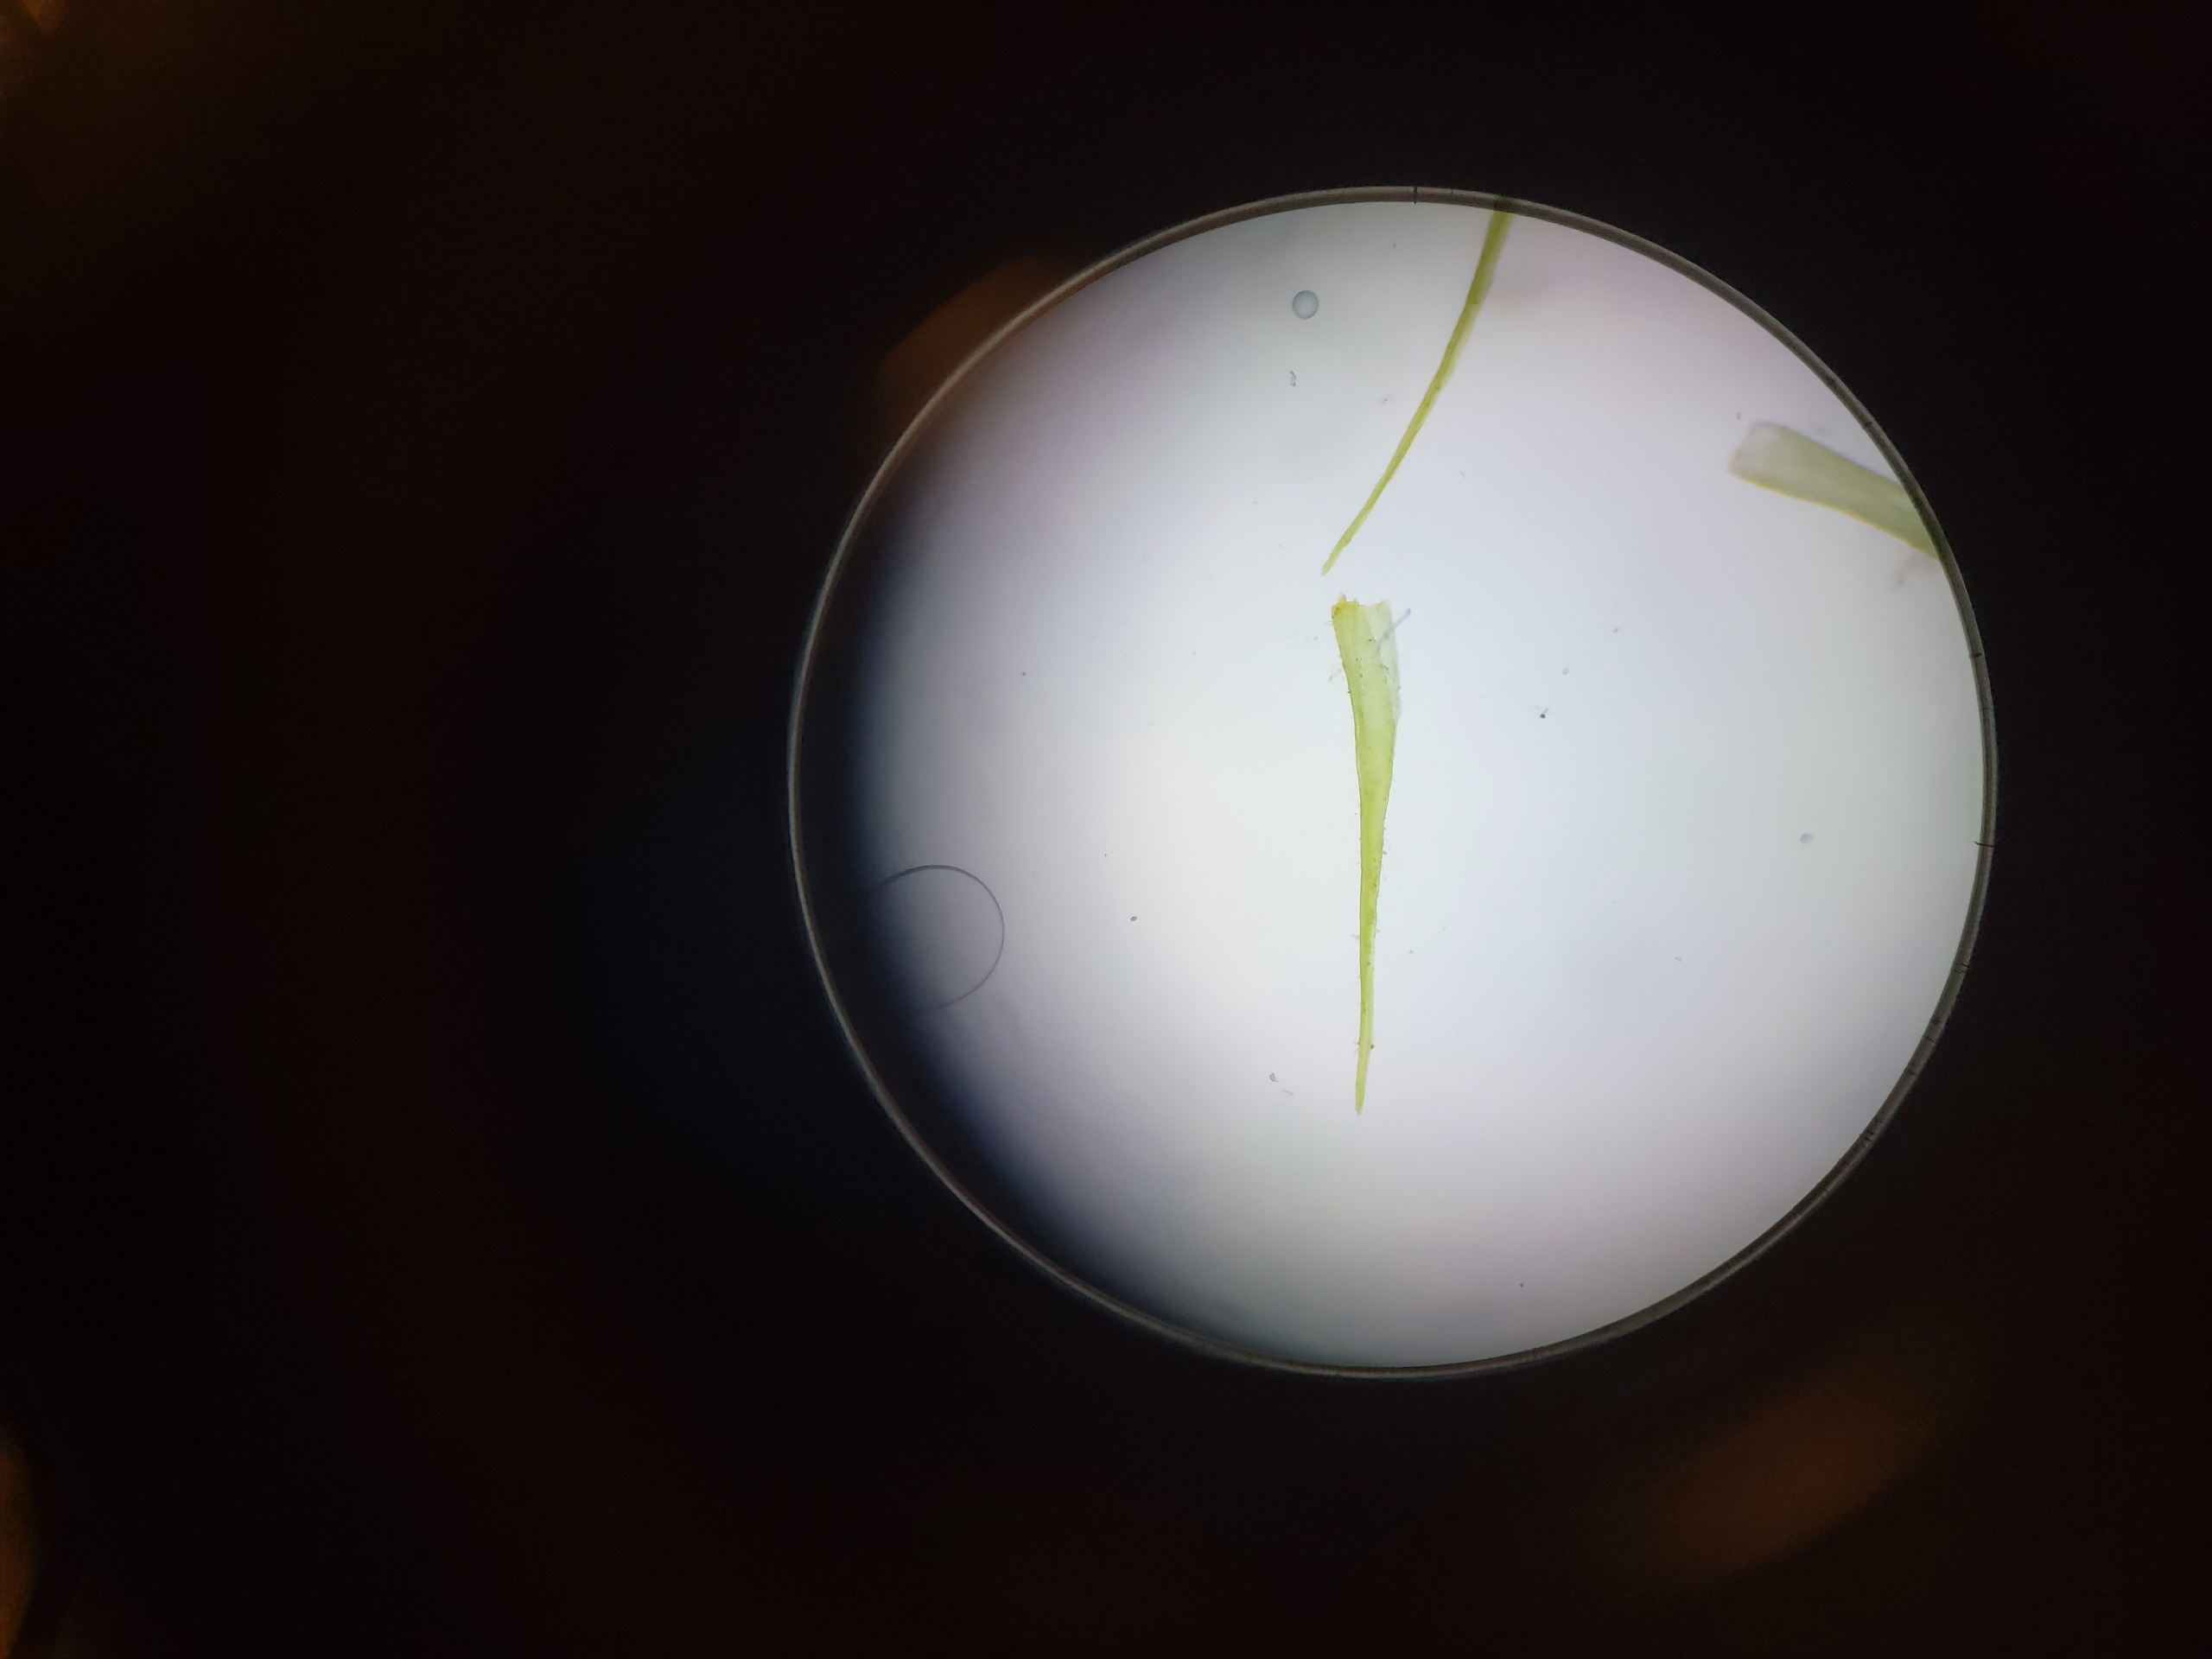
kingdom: Plantae
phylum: Bryophyta
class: Bryopsida
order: Dicranales
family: Ditrichaceae
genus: Ditrichum
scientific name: Ditrichum heteromallum
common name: Ensidig hårtand
